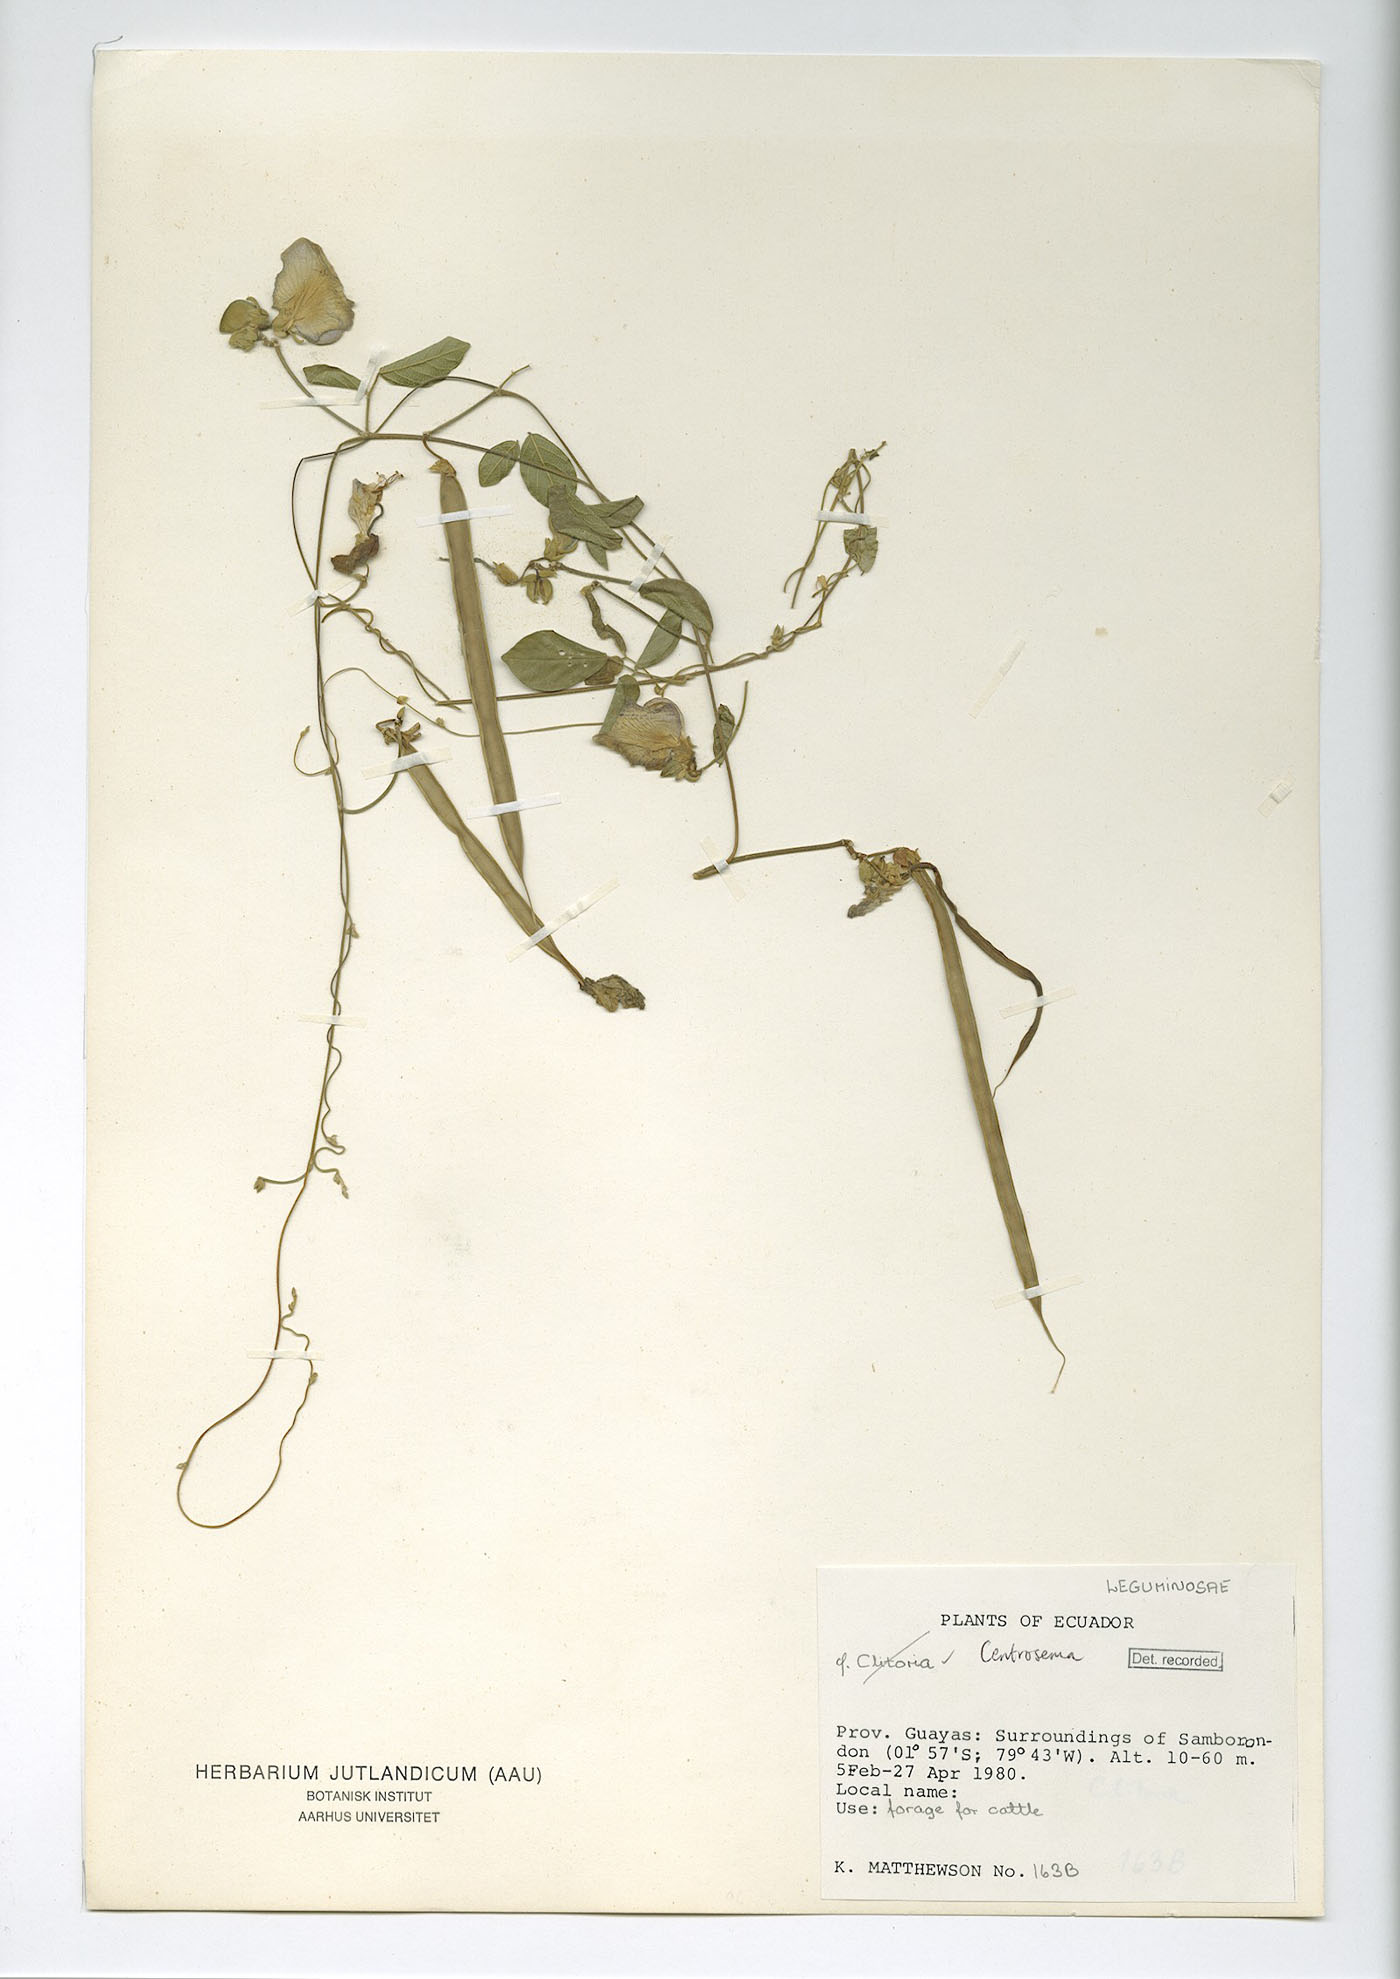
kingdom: Plantae
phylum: Tracheophyta
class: Magnoliopsida
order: Fabales
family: Fabaceae
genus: Centrosema
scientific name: Centrosema molle
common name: Soft butterfly pea
